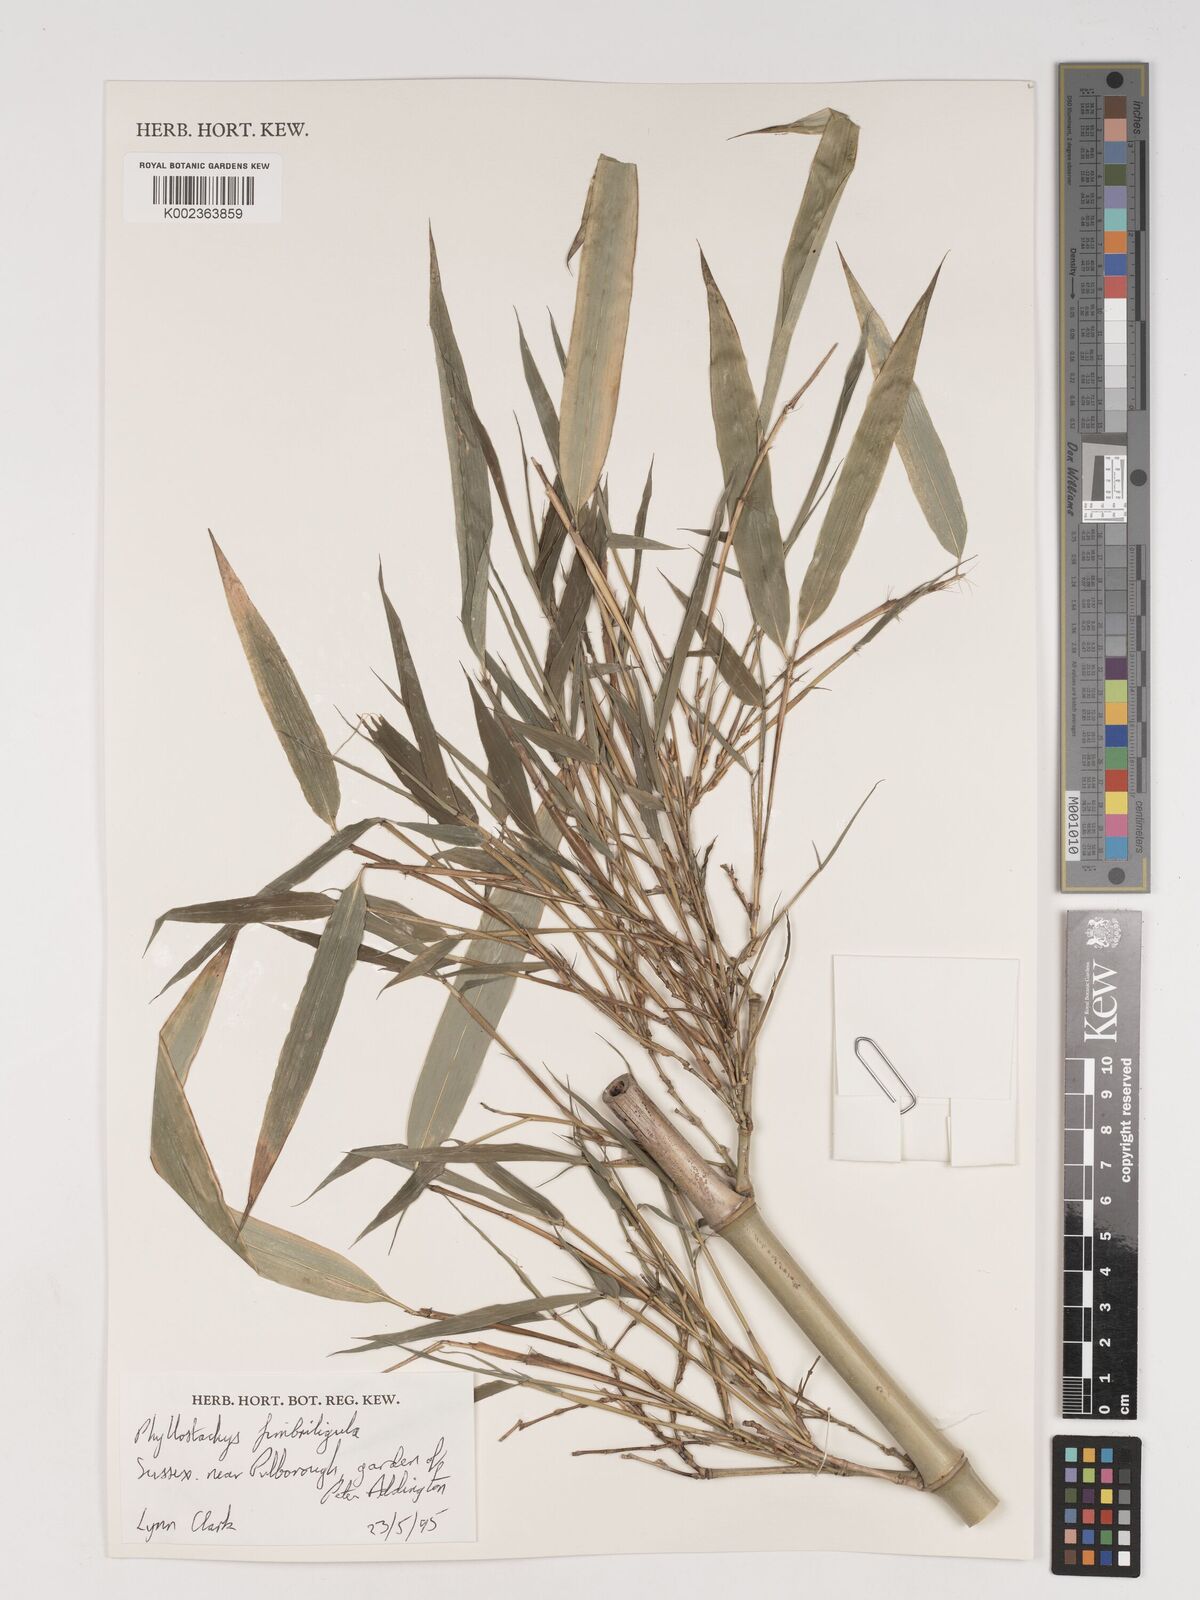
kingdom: Plantae
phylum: Tracheophyta
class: Liliopsida
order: Poales
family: Poaceae
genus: Phyllostachys
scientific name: Phyllostachys
